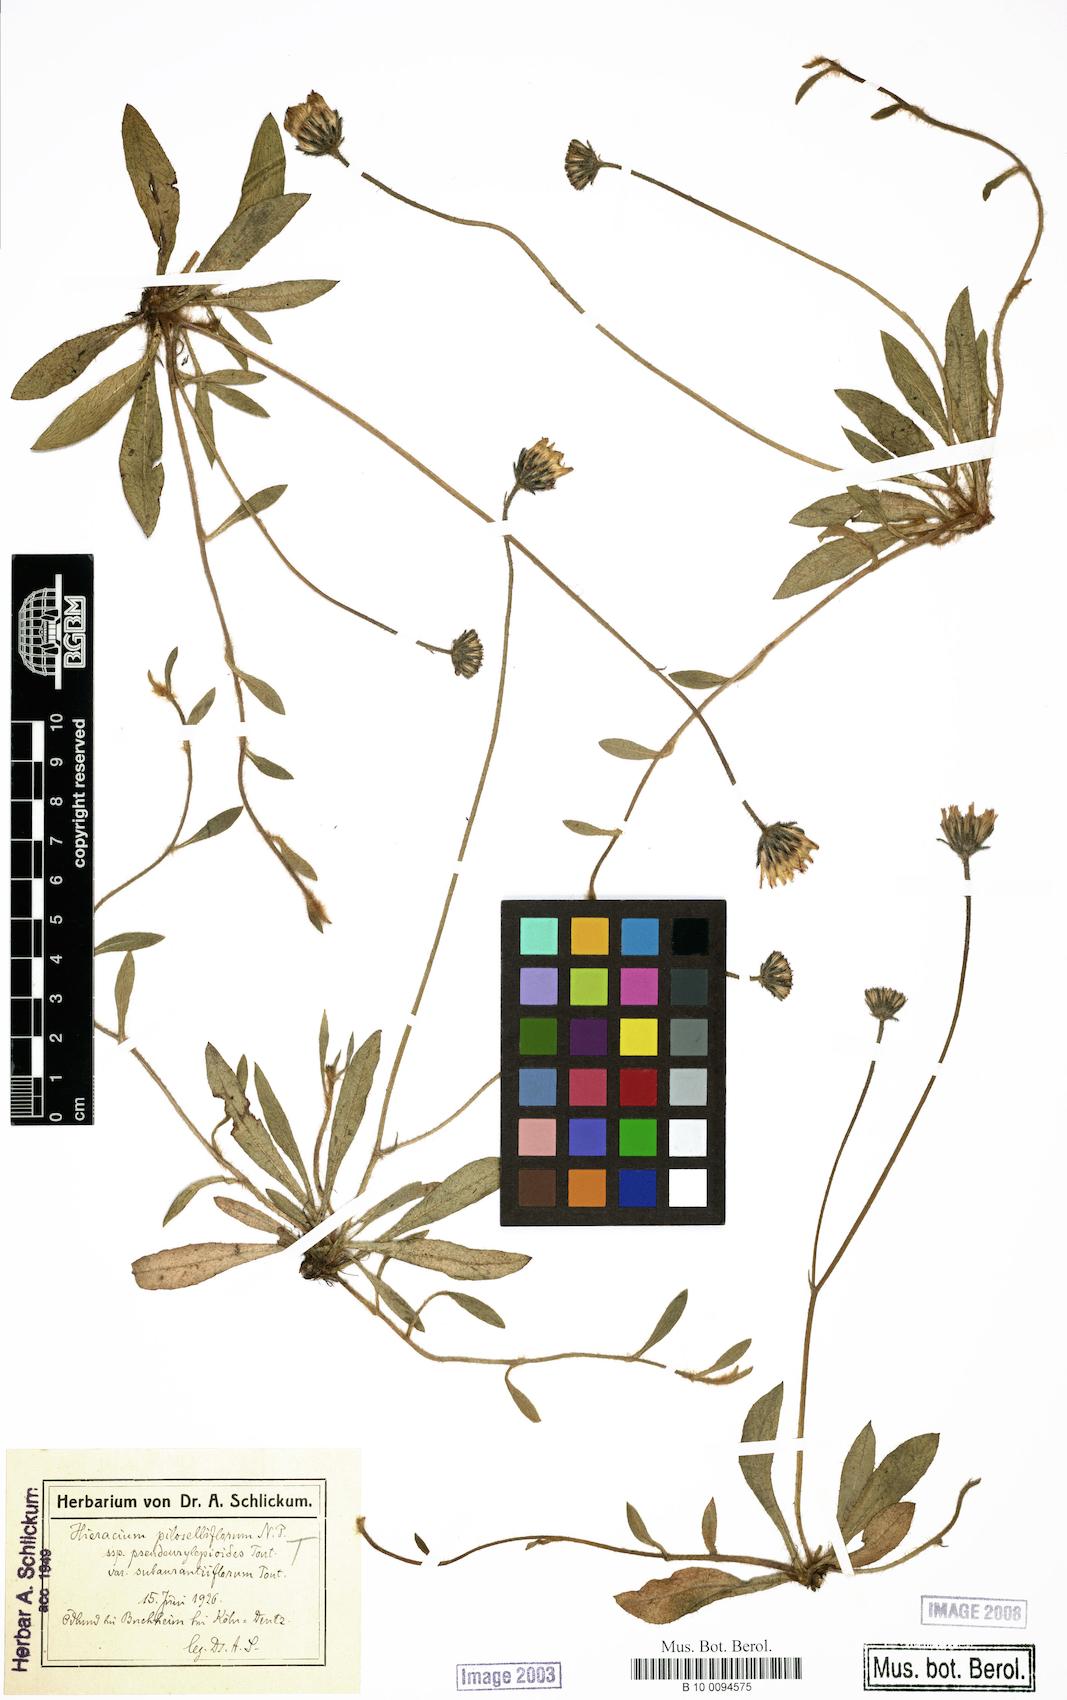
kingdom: Plantae
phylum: Tracheophyta
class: Magnoliopsida
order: Asterales
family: Asteraceae
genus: Pilosella
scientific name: Pilosella piloselliflora
